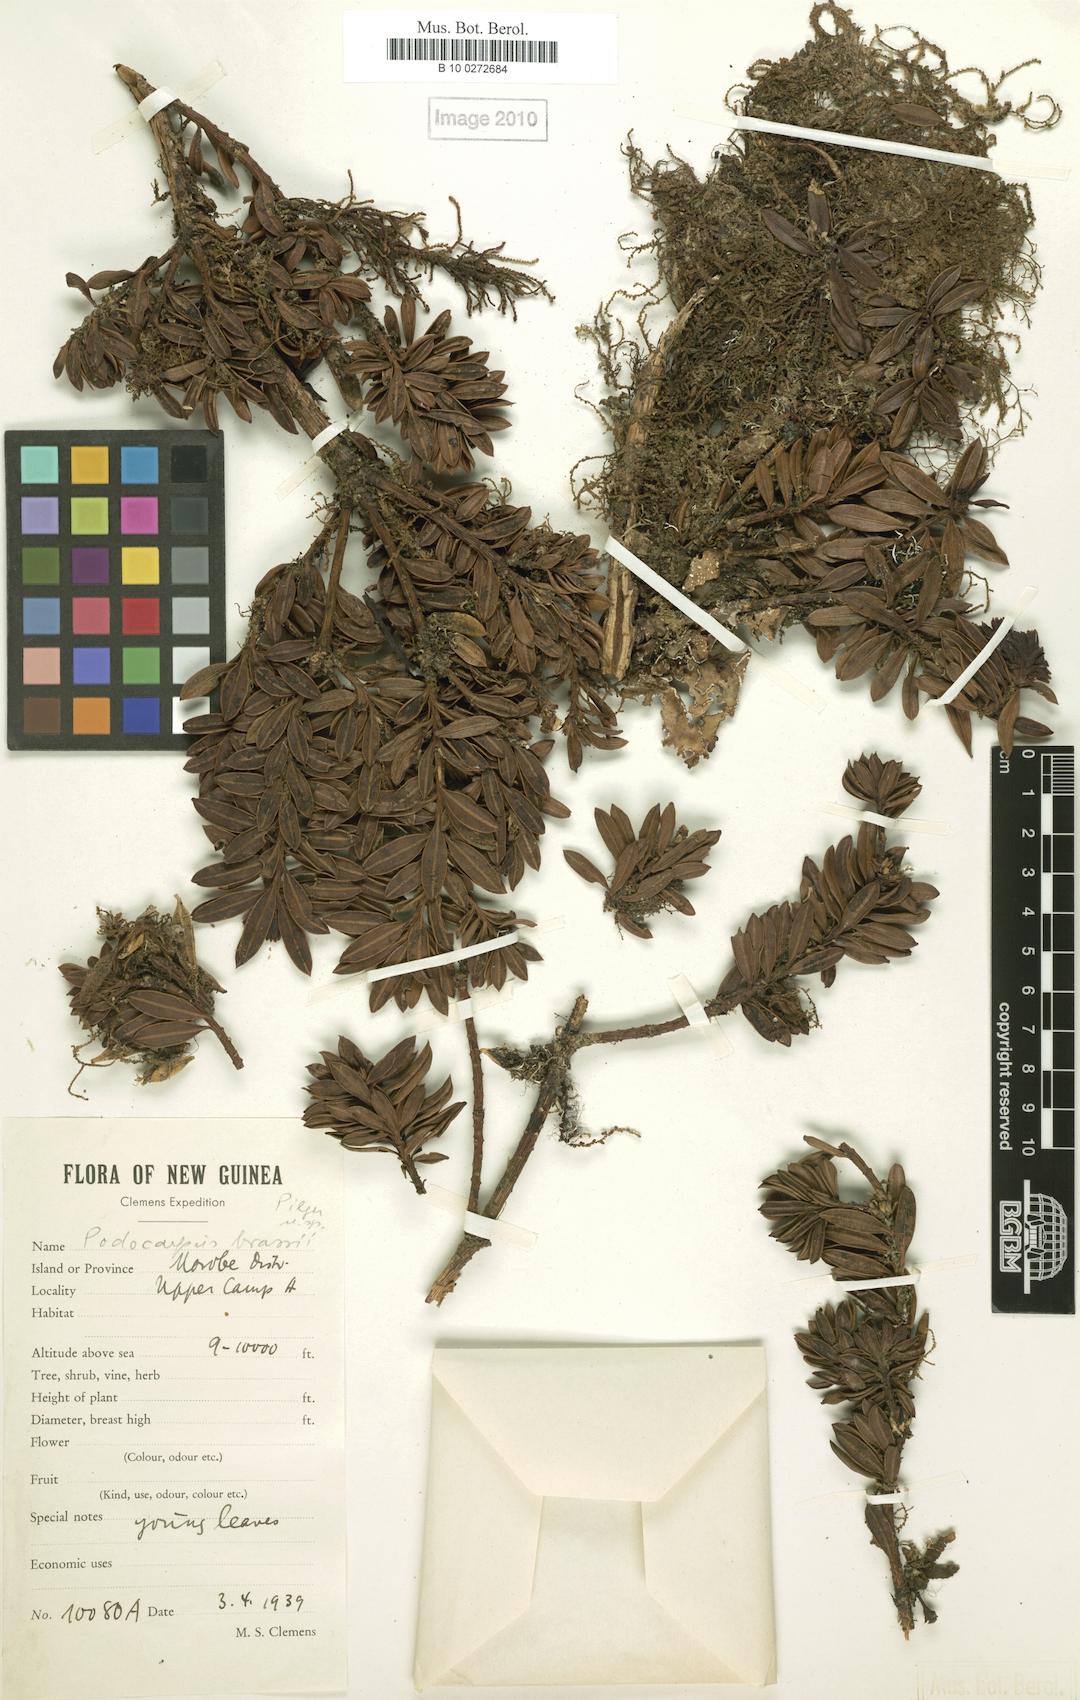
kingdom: Plantae
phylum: Tracheophyta
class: Pinopsida
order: Pinales
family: Podocarpaceae
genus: Podocarpus
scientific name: Podocarpus brassii
